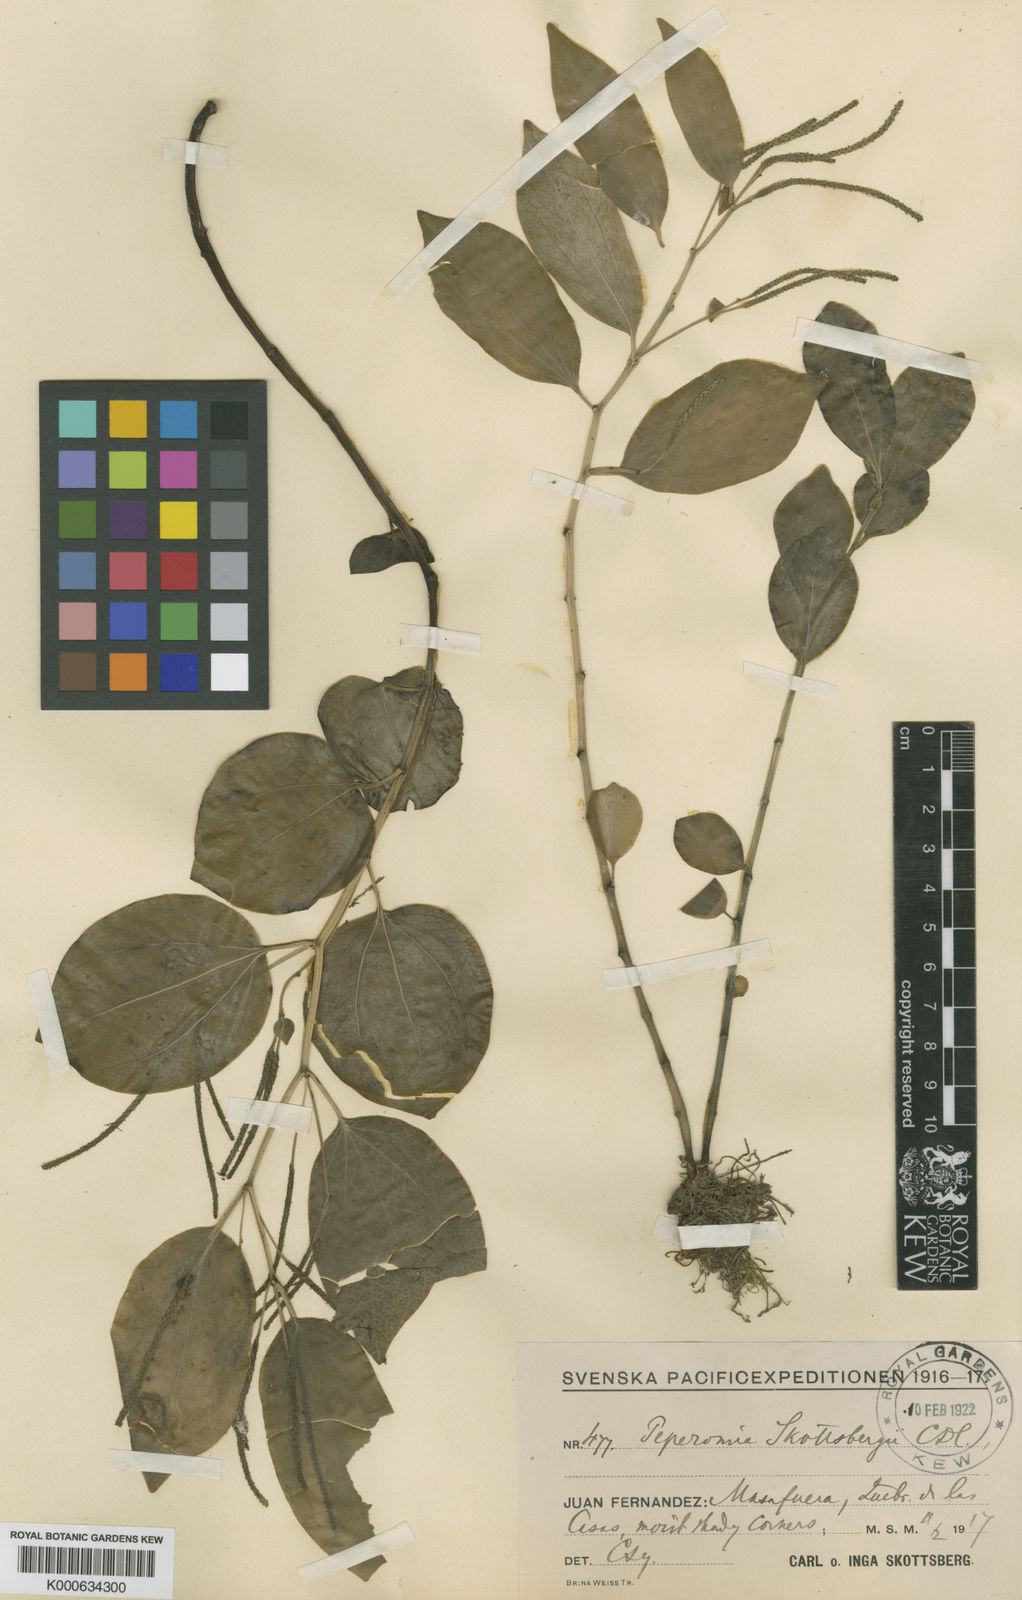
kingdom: Plantae
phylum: Tracheophyta
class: Magnoliopsida
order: Piperales
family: Piperaceae
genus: Peperomia
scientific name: Peperomia skottsbergii
